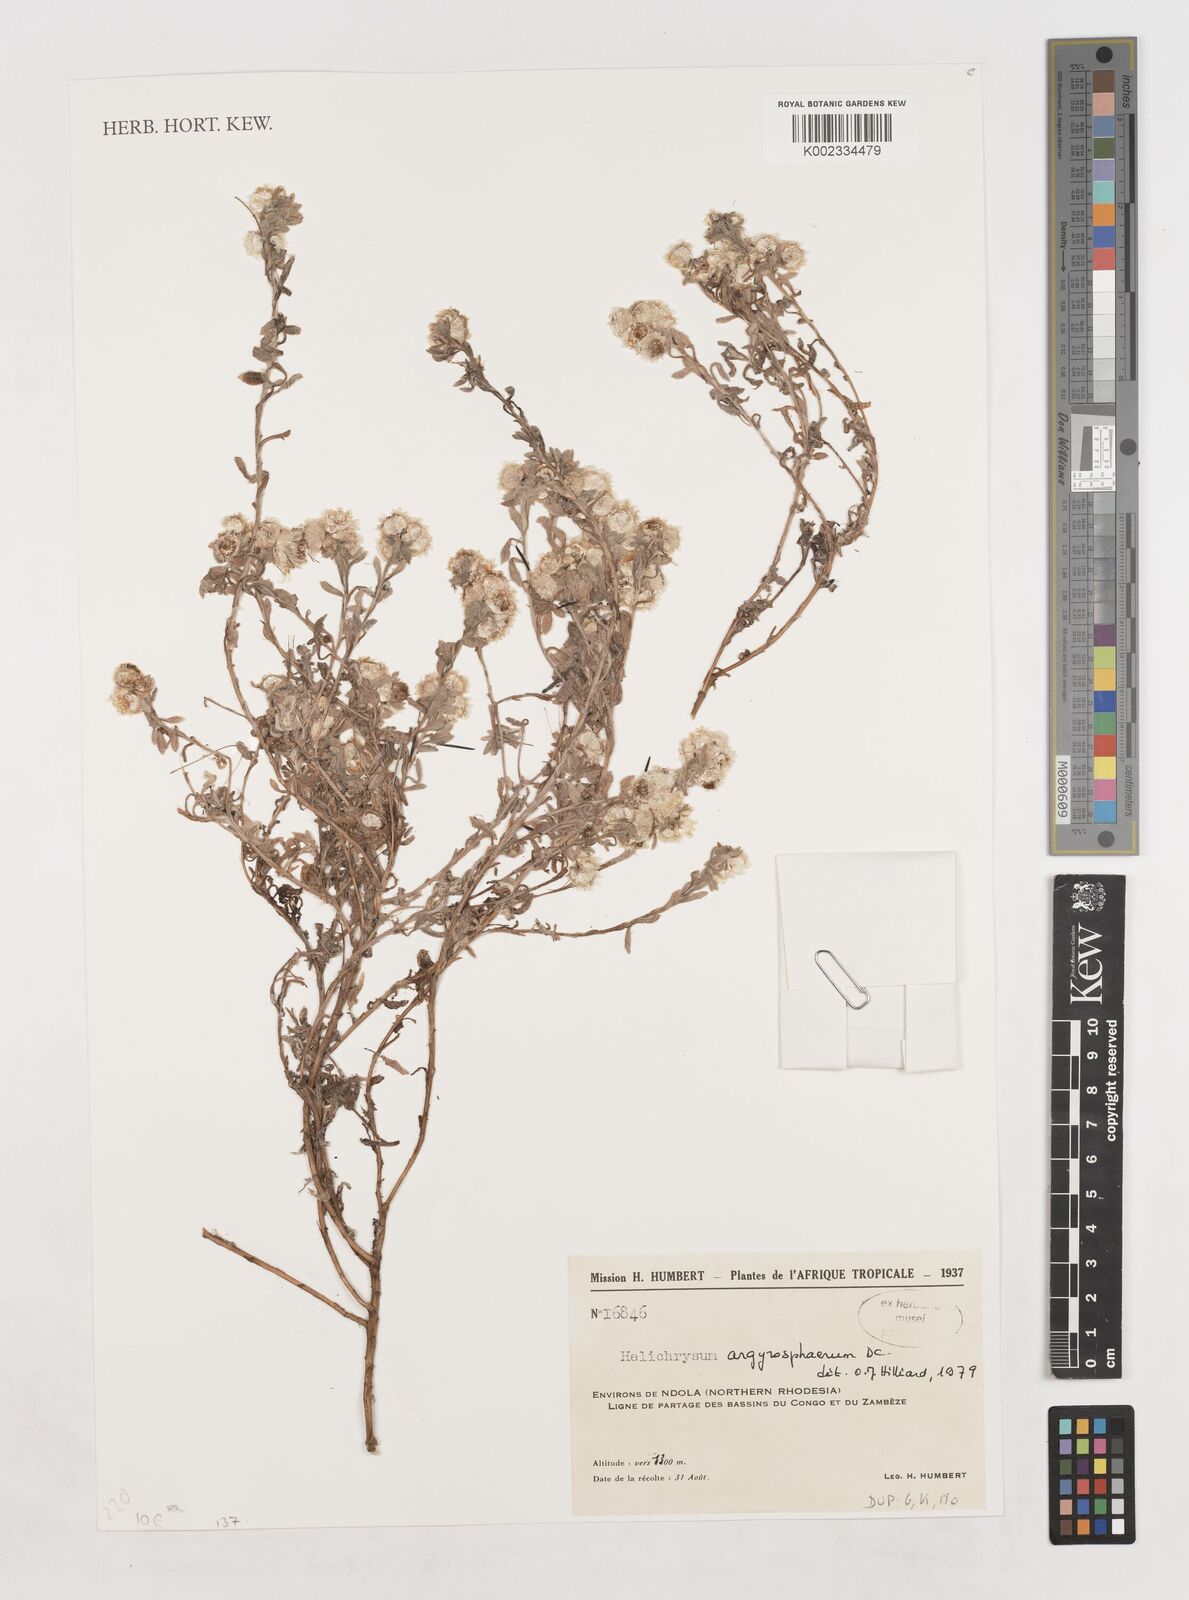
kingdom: Plantae
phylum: Tracheophyta
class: Magnoliopsida
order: Asterales
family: Asteraceae
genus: Helichrysum
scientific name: Helichrysum argyrosphaerum
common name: Wild everlasting
